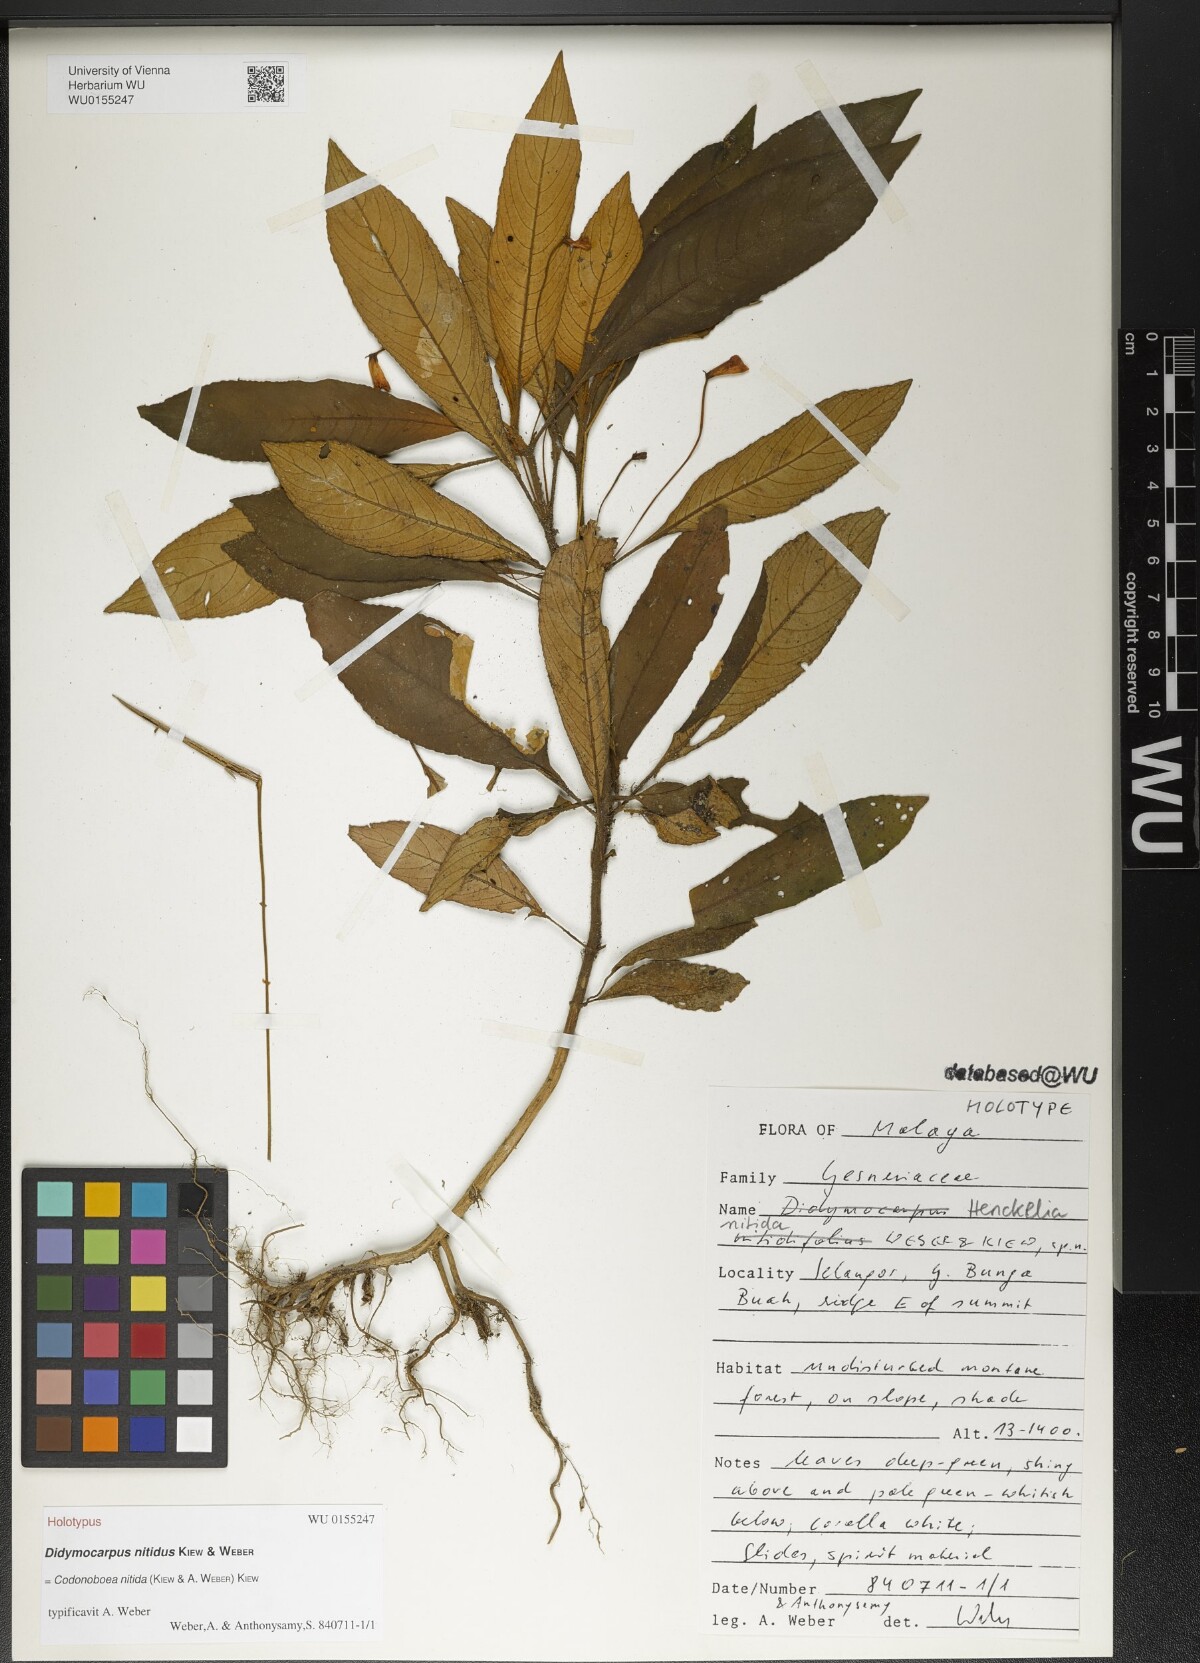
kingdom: Plantae
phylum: Tracheophyta
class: Magnoliopsida
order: Lamiales
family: Gesneriaceae
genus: Codonoboea
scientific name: Codonoboea nitida
